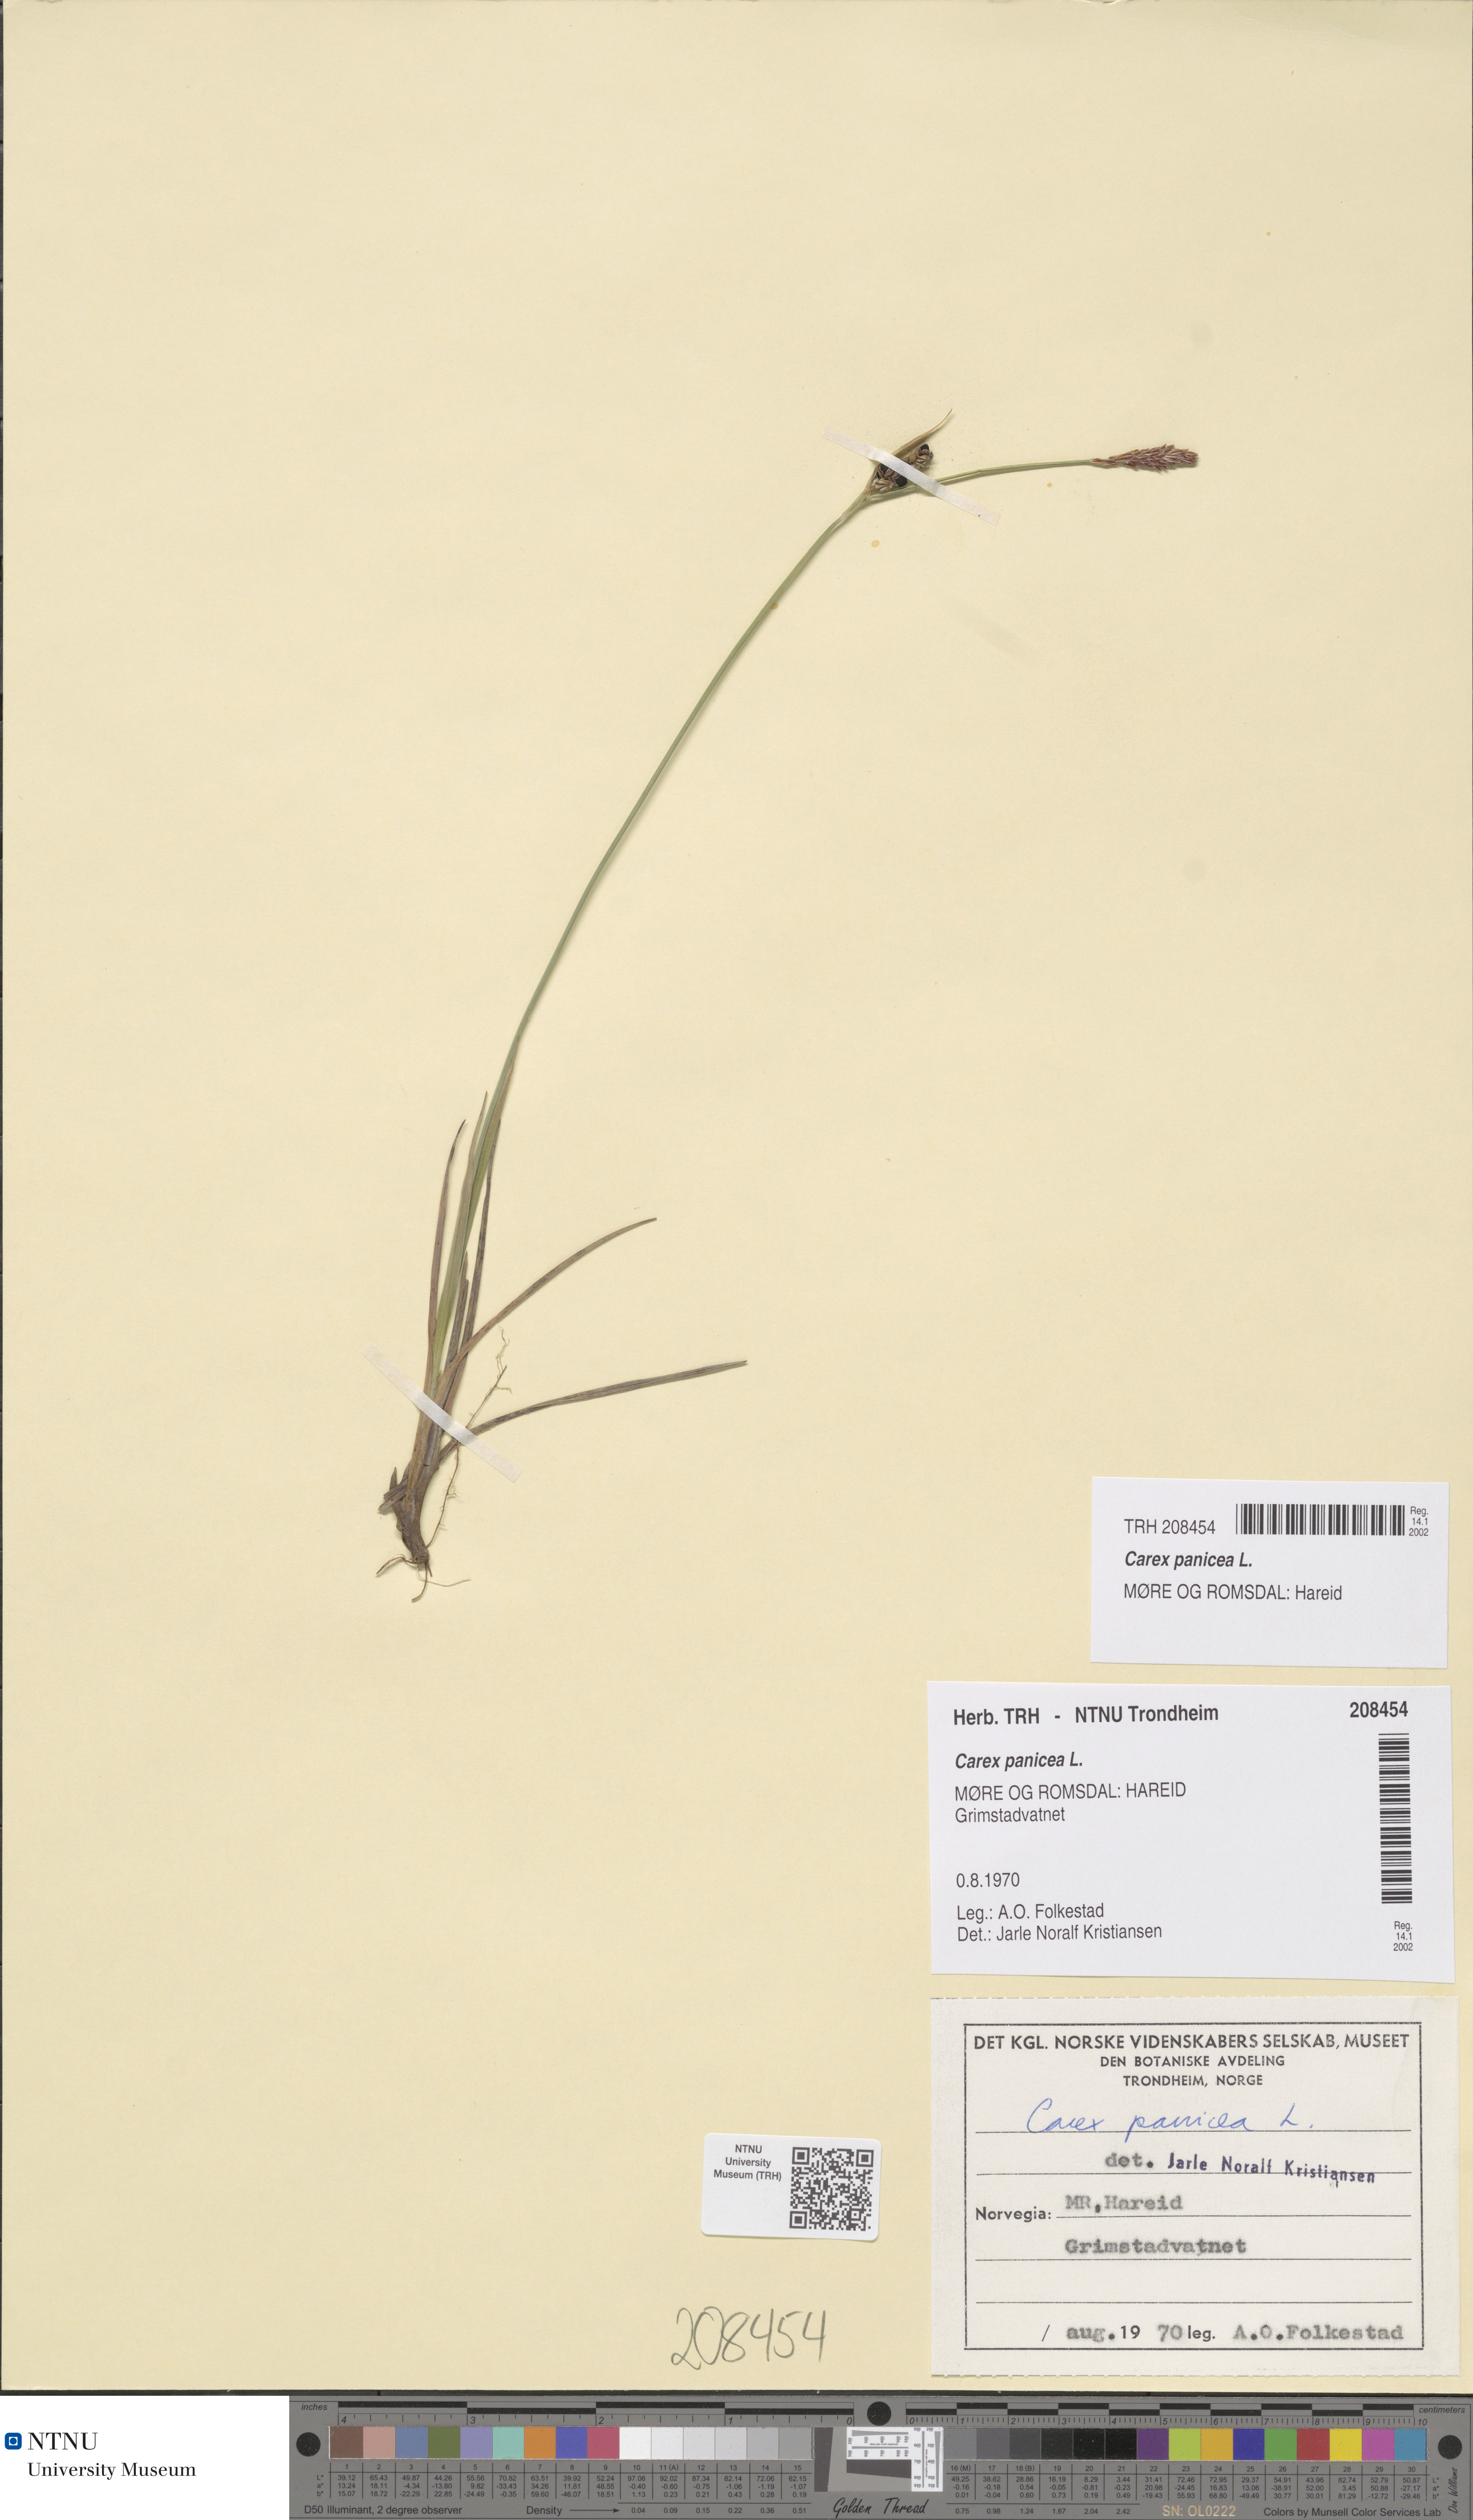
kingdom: Plantae
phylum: Tracheophyta
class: Liliopsida
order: Poales
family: Cyperaceae
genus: Carex
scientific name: Carex panicea
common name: Carnation sedge
